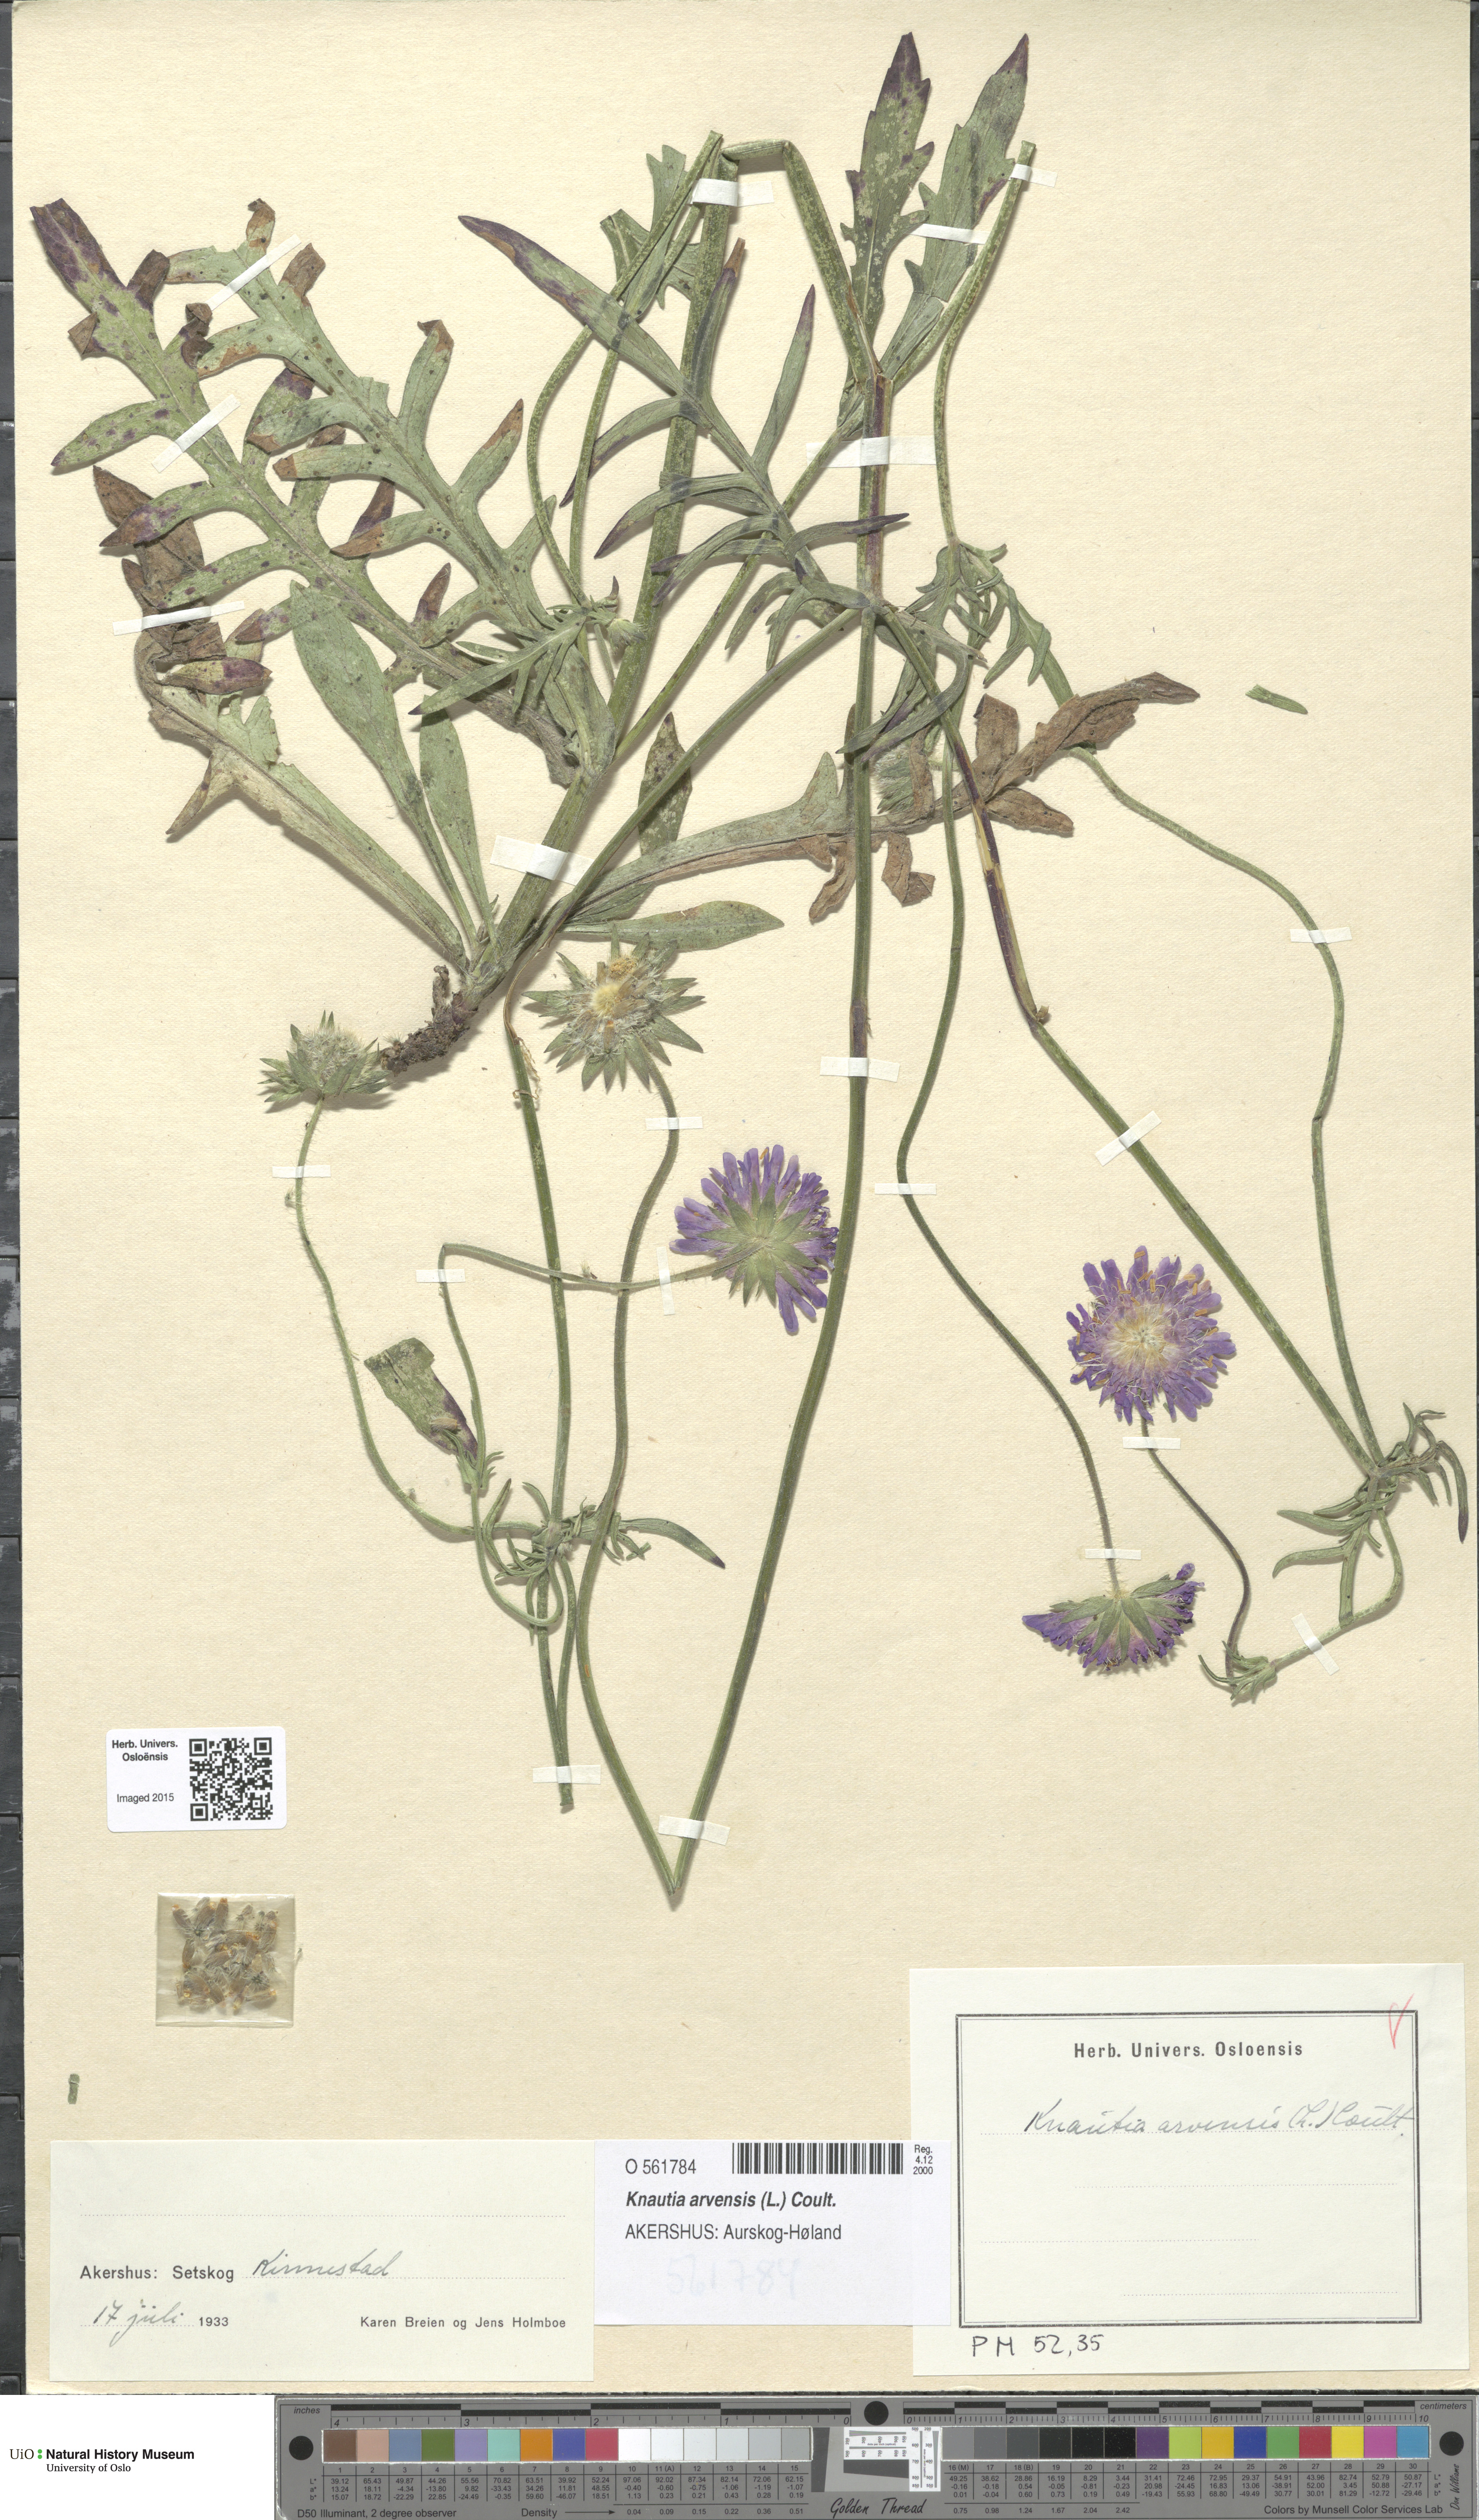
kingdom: Plantae
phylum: Tracheophyta
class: Magnoliopsida
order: Dipsacales
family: Caprifoliaceae
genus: Knautia
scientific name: Knautia arvensis
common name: Field scabiosa
